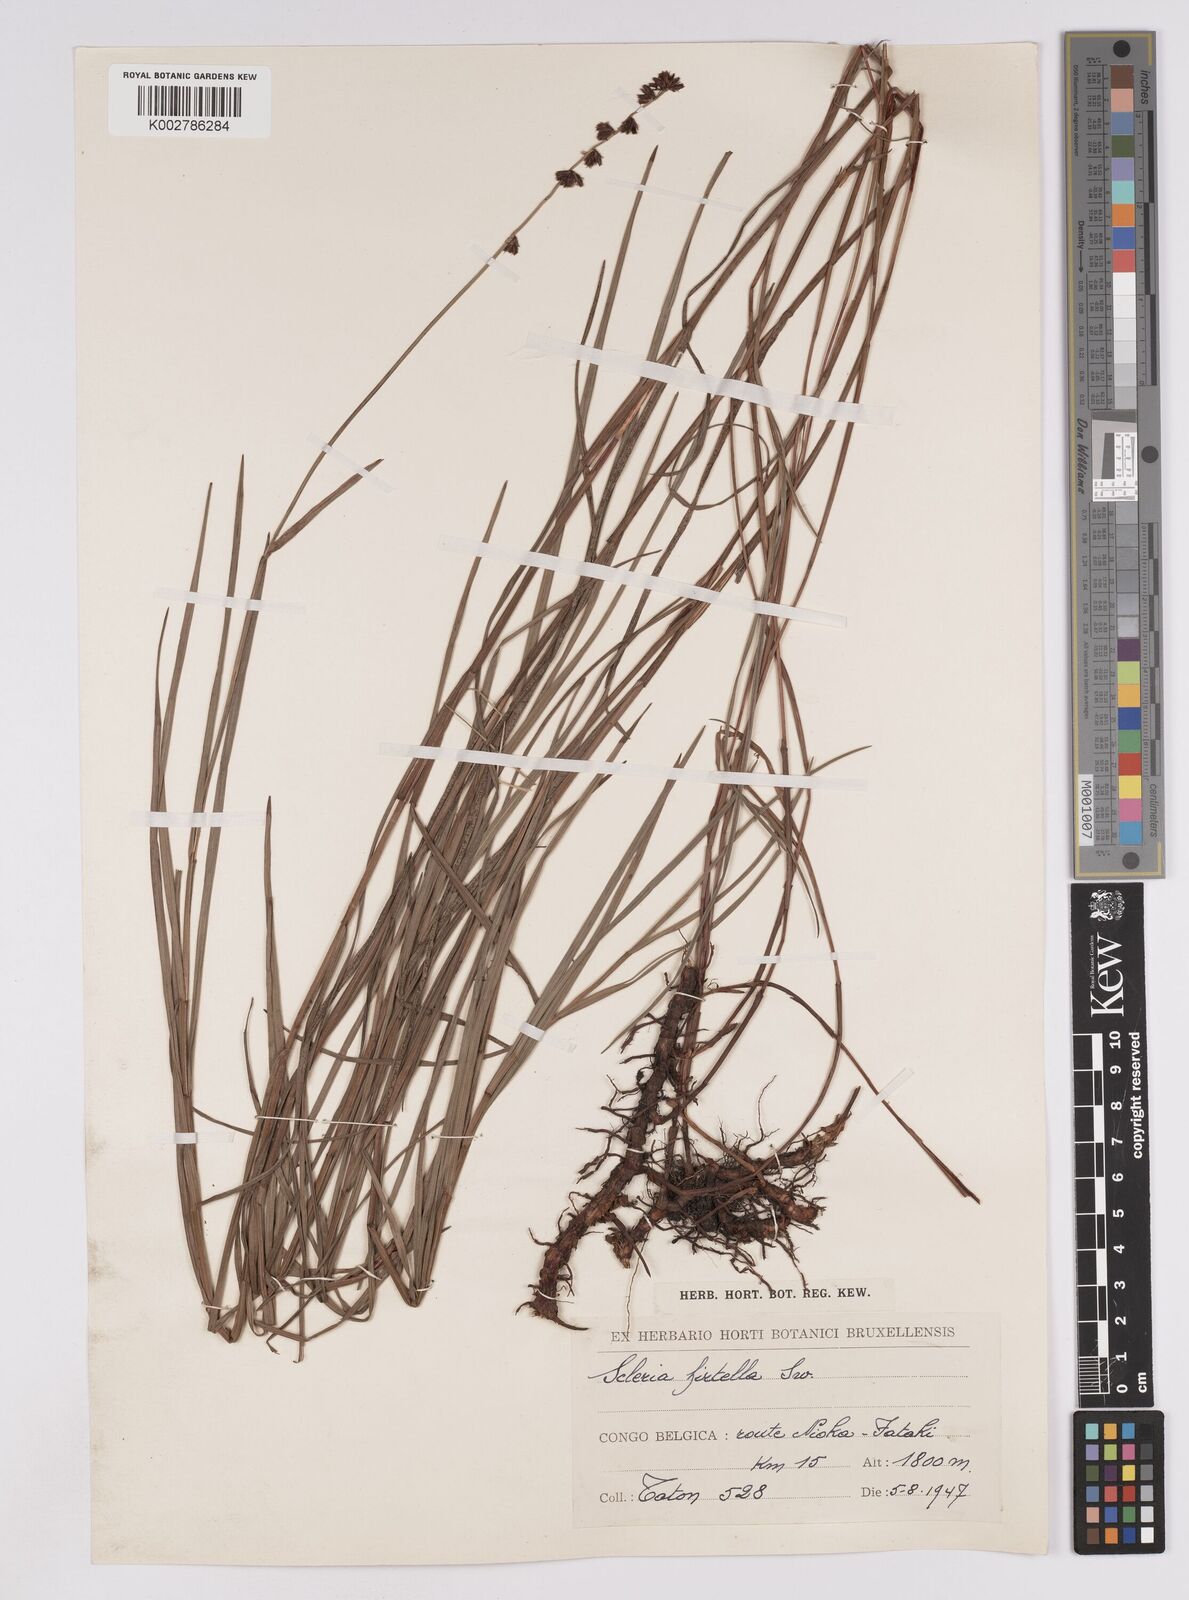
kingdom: Plantae
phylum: Tracheophyta
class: Liliopsida
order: Poales
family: Cyperaceae
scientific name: Cyperaceae
